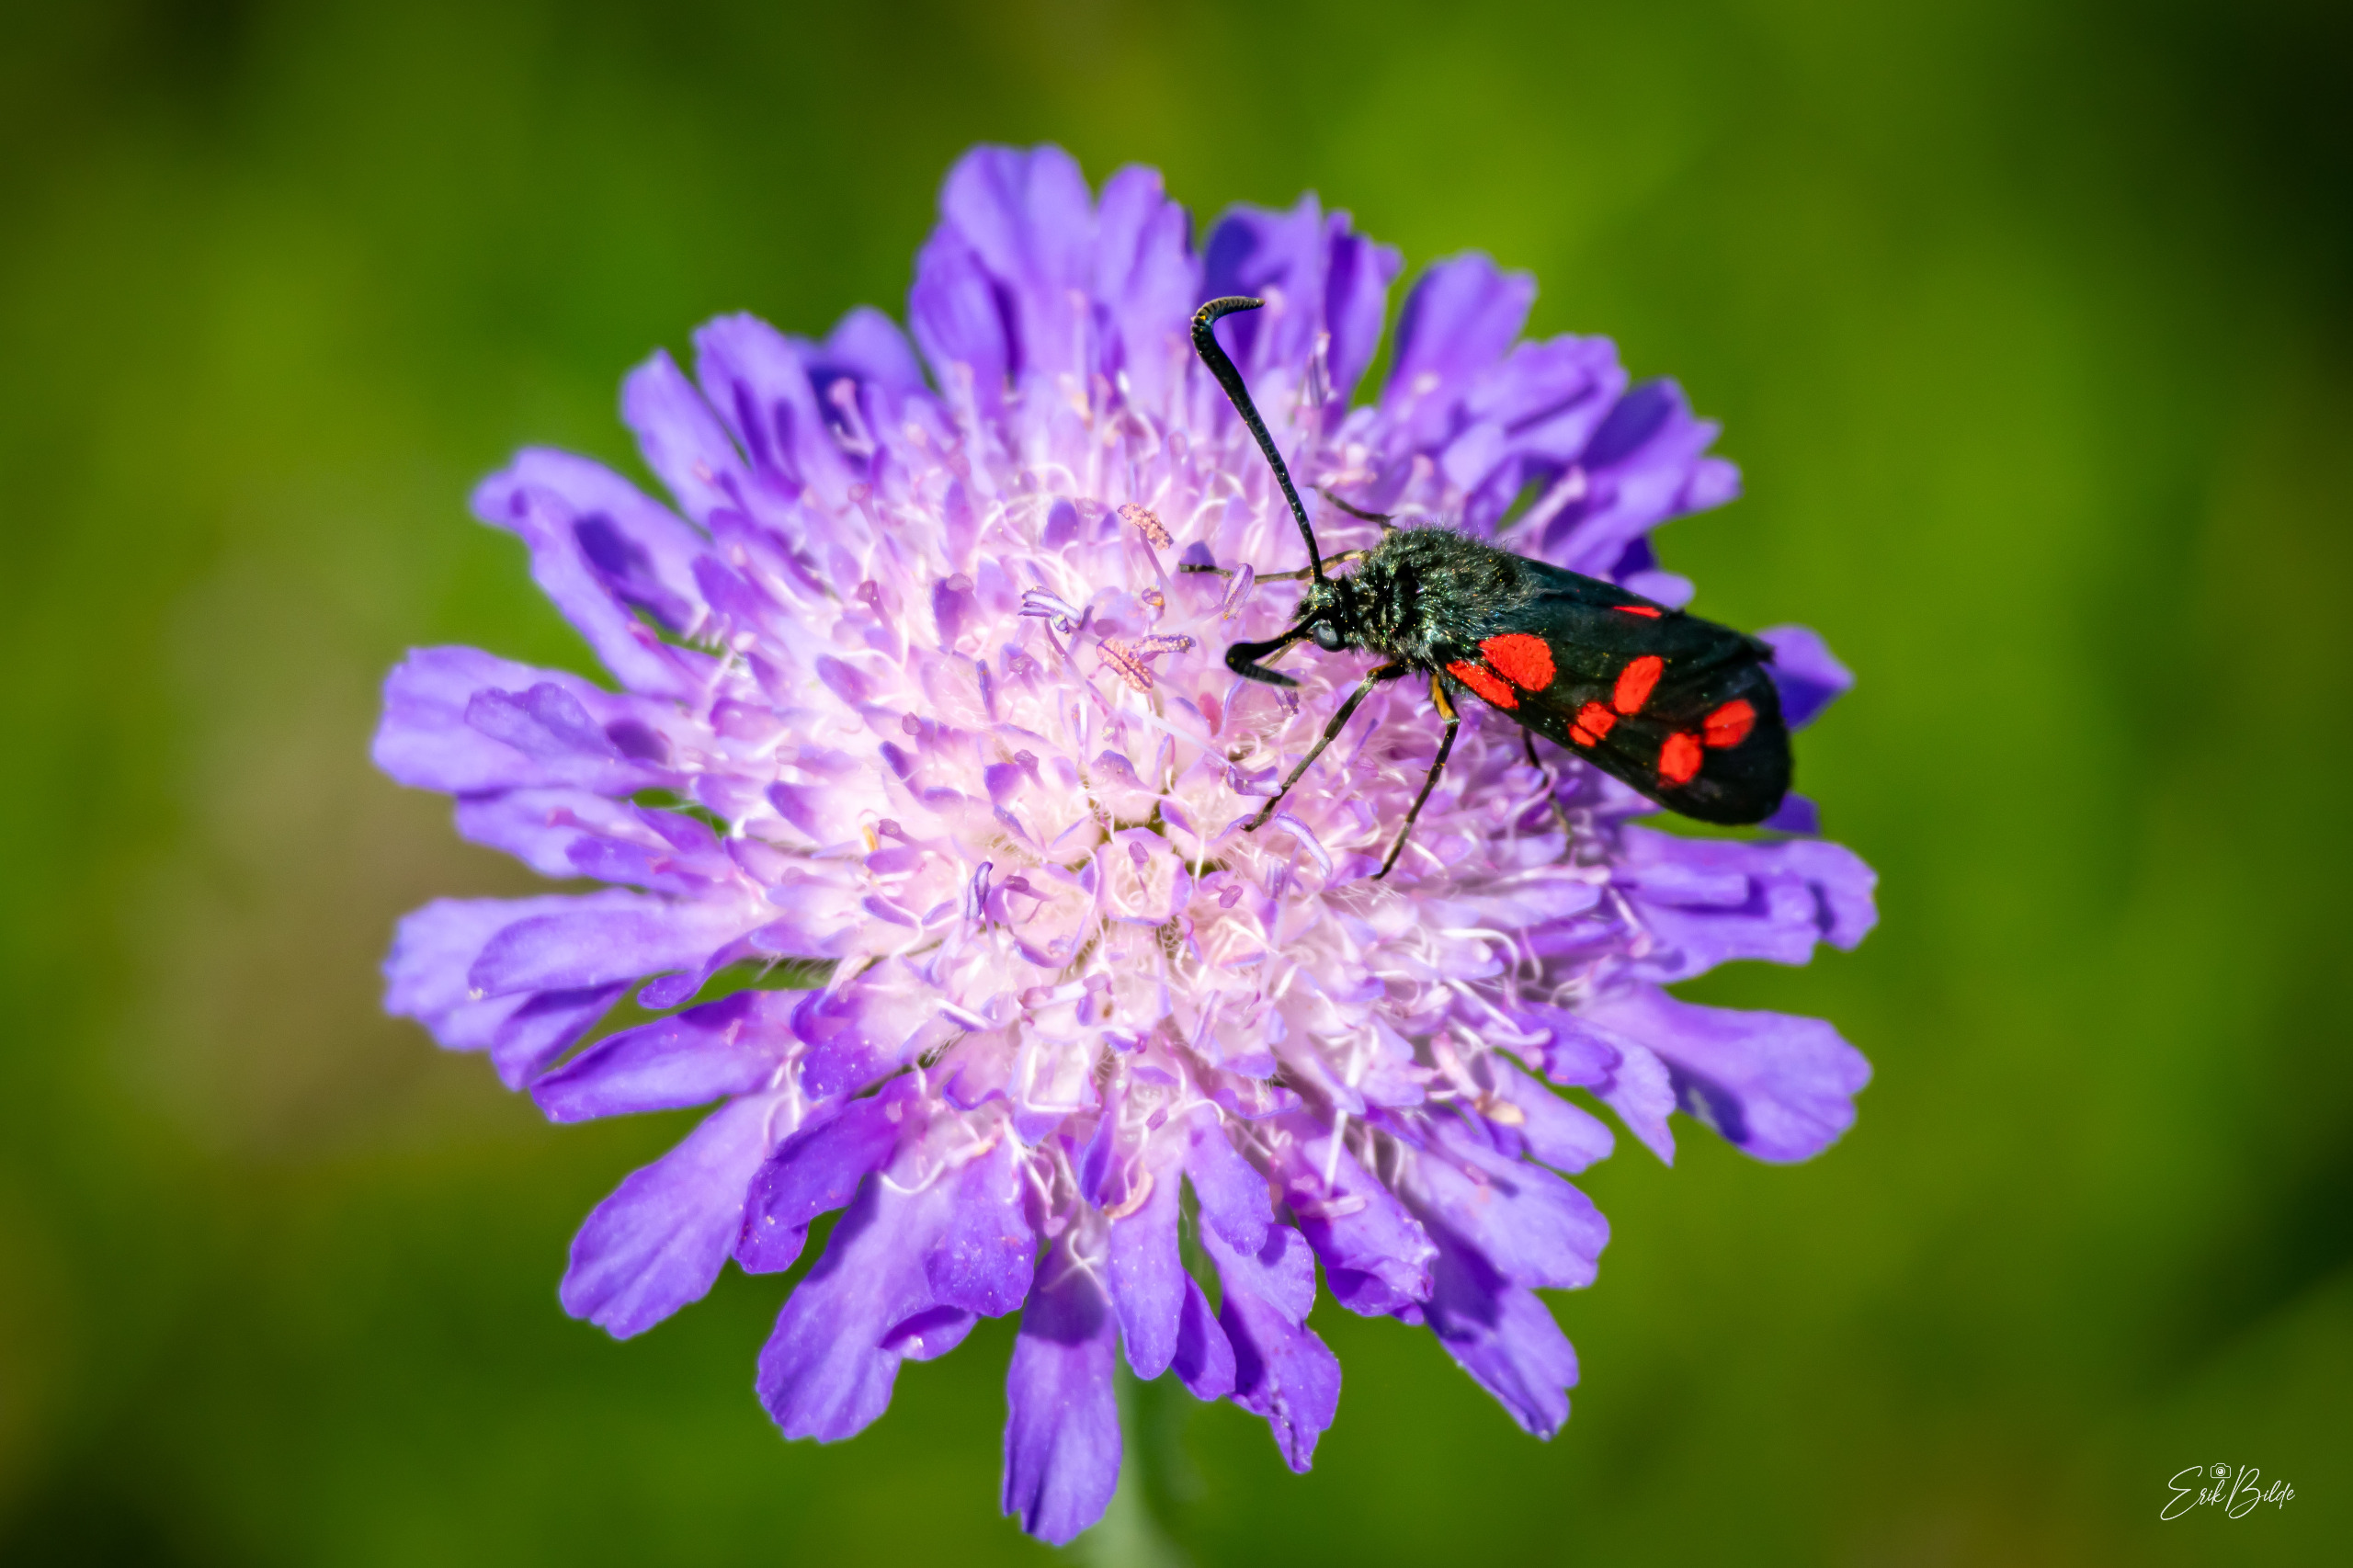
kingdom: Animalia
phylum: Arthropoda
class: Insecta
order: Lepidoptera
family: Zygaenidae
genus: Zygaena
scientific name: Zygaena filipendulae
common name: Seksplettet køllesværmer
